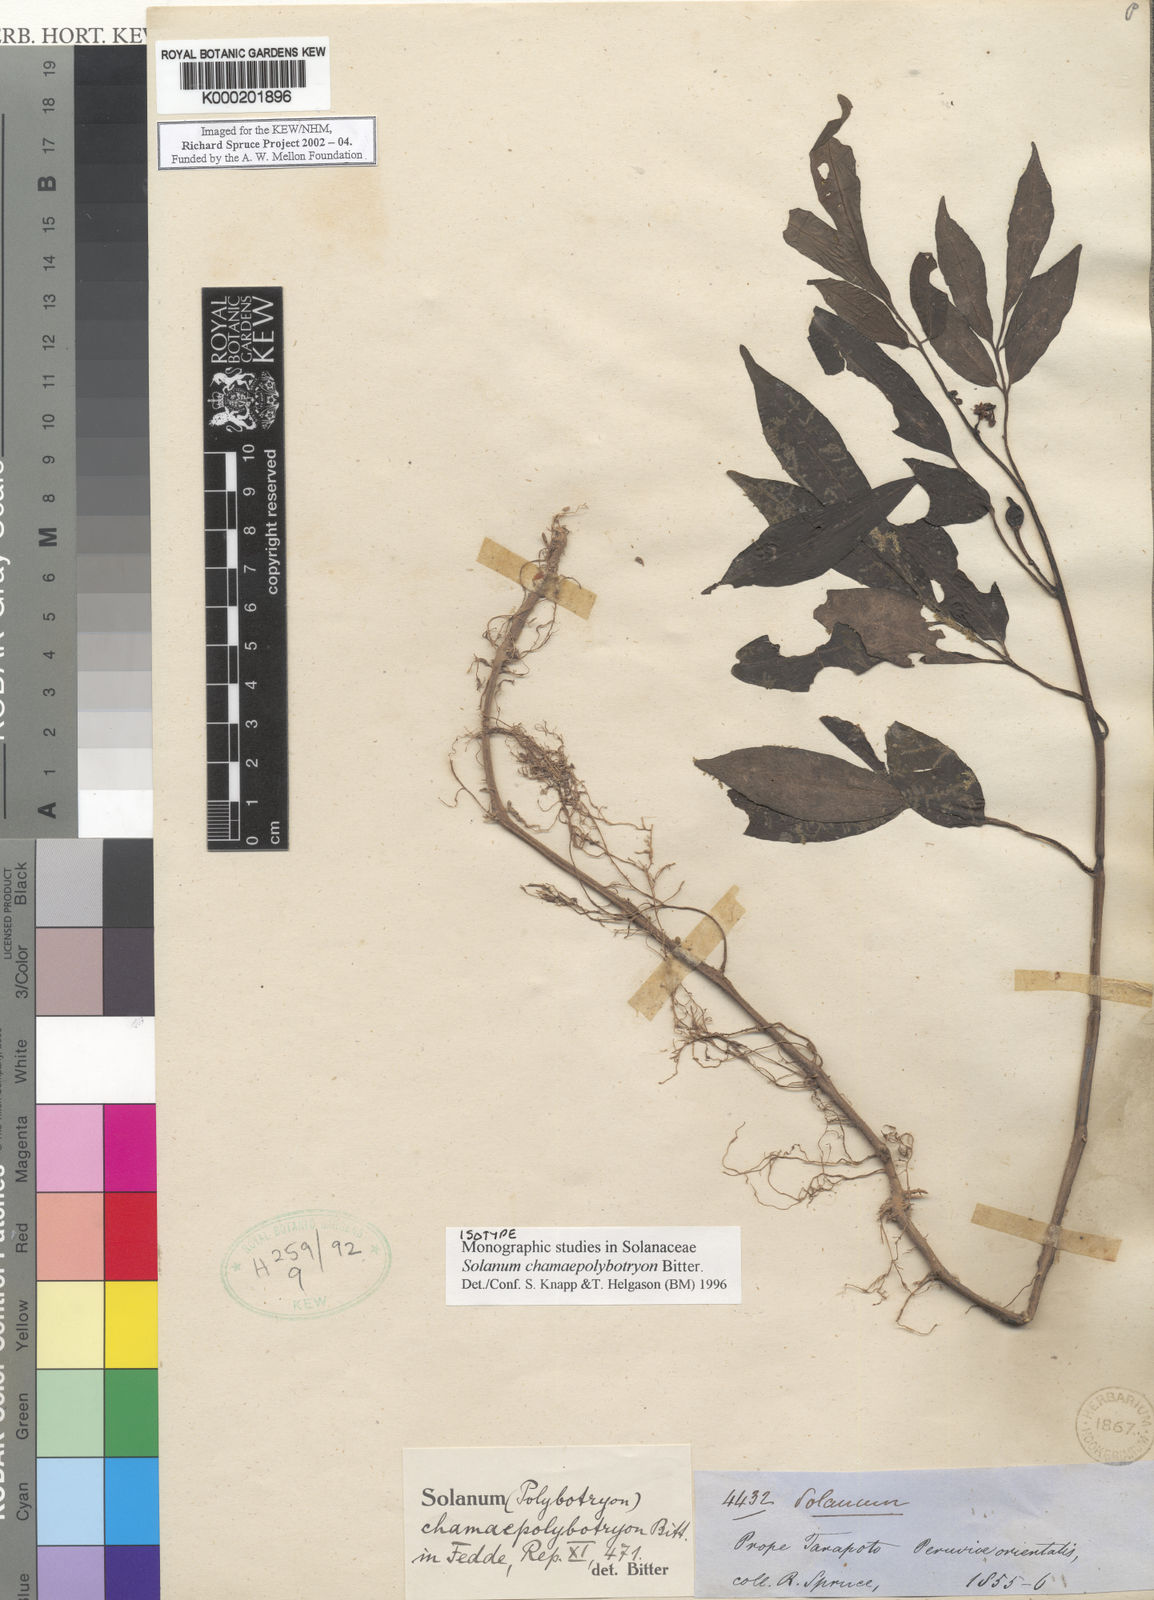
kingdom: Plantae
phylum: Tracheophyta
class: Magnoliopsida
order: Solanales
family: Solanaceae
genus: Solanum
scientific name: Solanum trizygum
